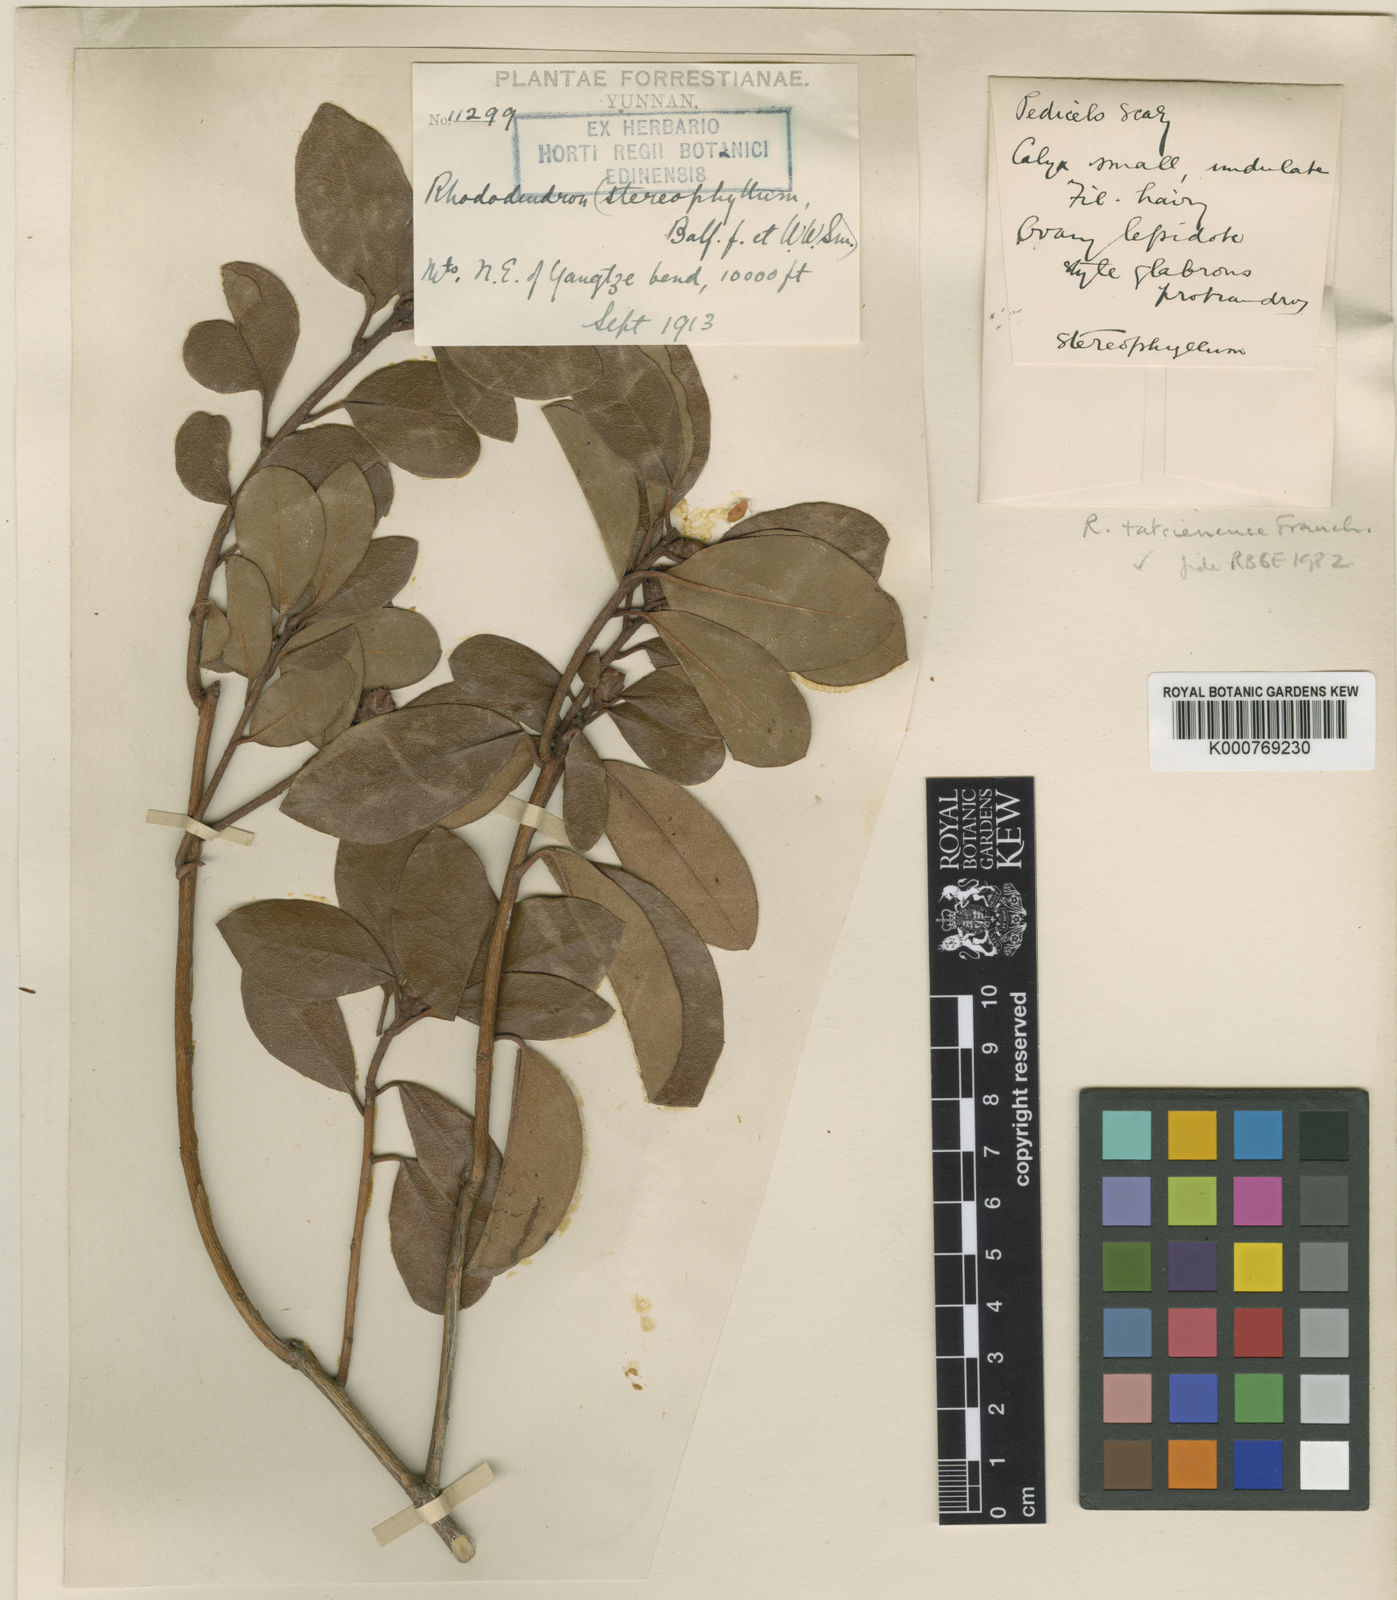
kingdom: Plantae
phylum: Tracheophyta
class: Magnoliopsida
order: Ericales
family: Ericaceae
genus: Rhododendron
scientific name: Rhododendron tatsienense
